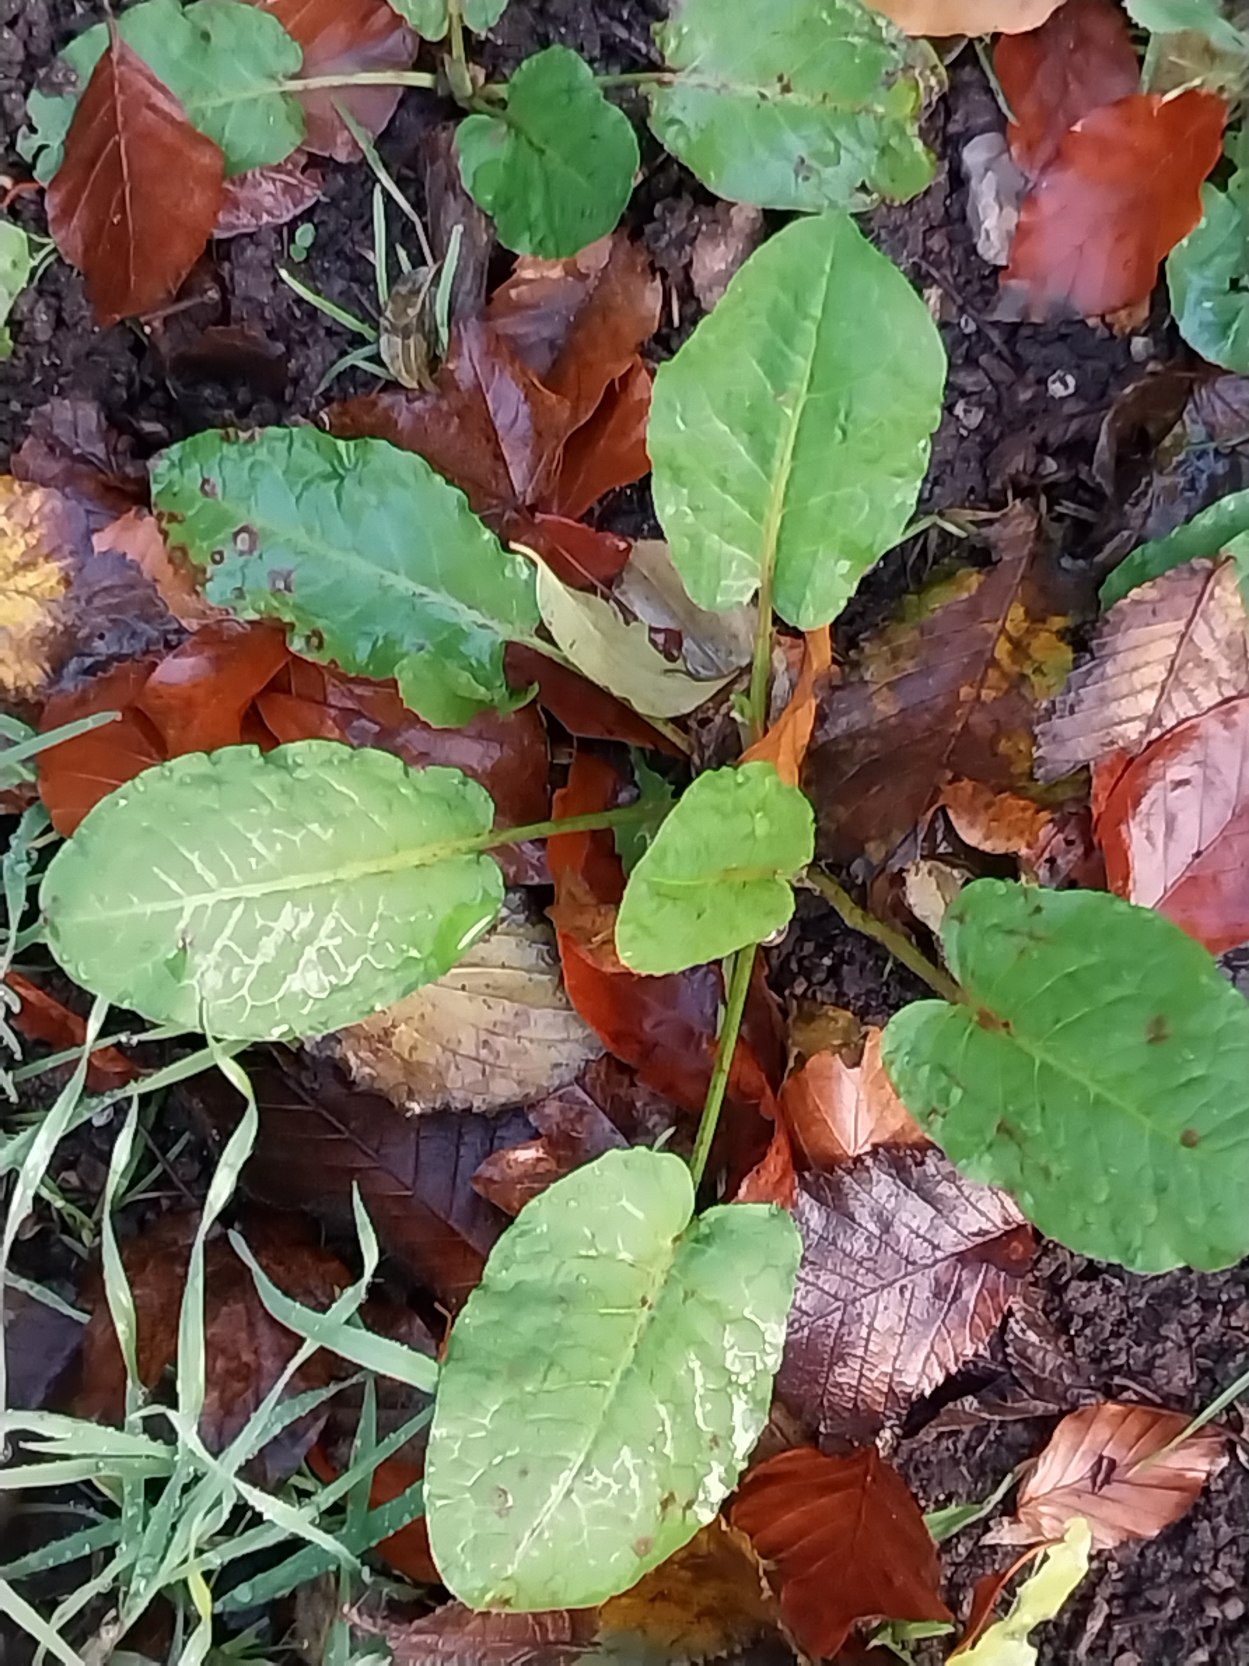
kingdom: Plantae
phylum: Tracheophyta
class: Magnoliopsida
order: Caryophyllales
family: Polygonaceae
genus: Rumex
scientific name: Rumex obtusifolius
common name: Butbladet skræppe
